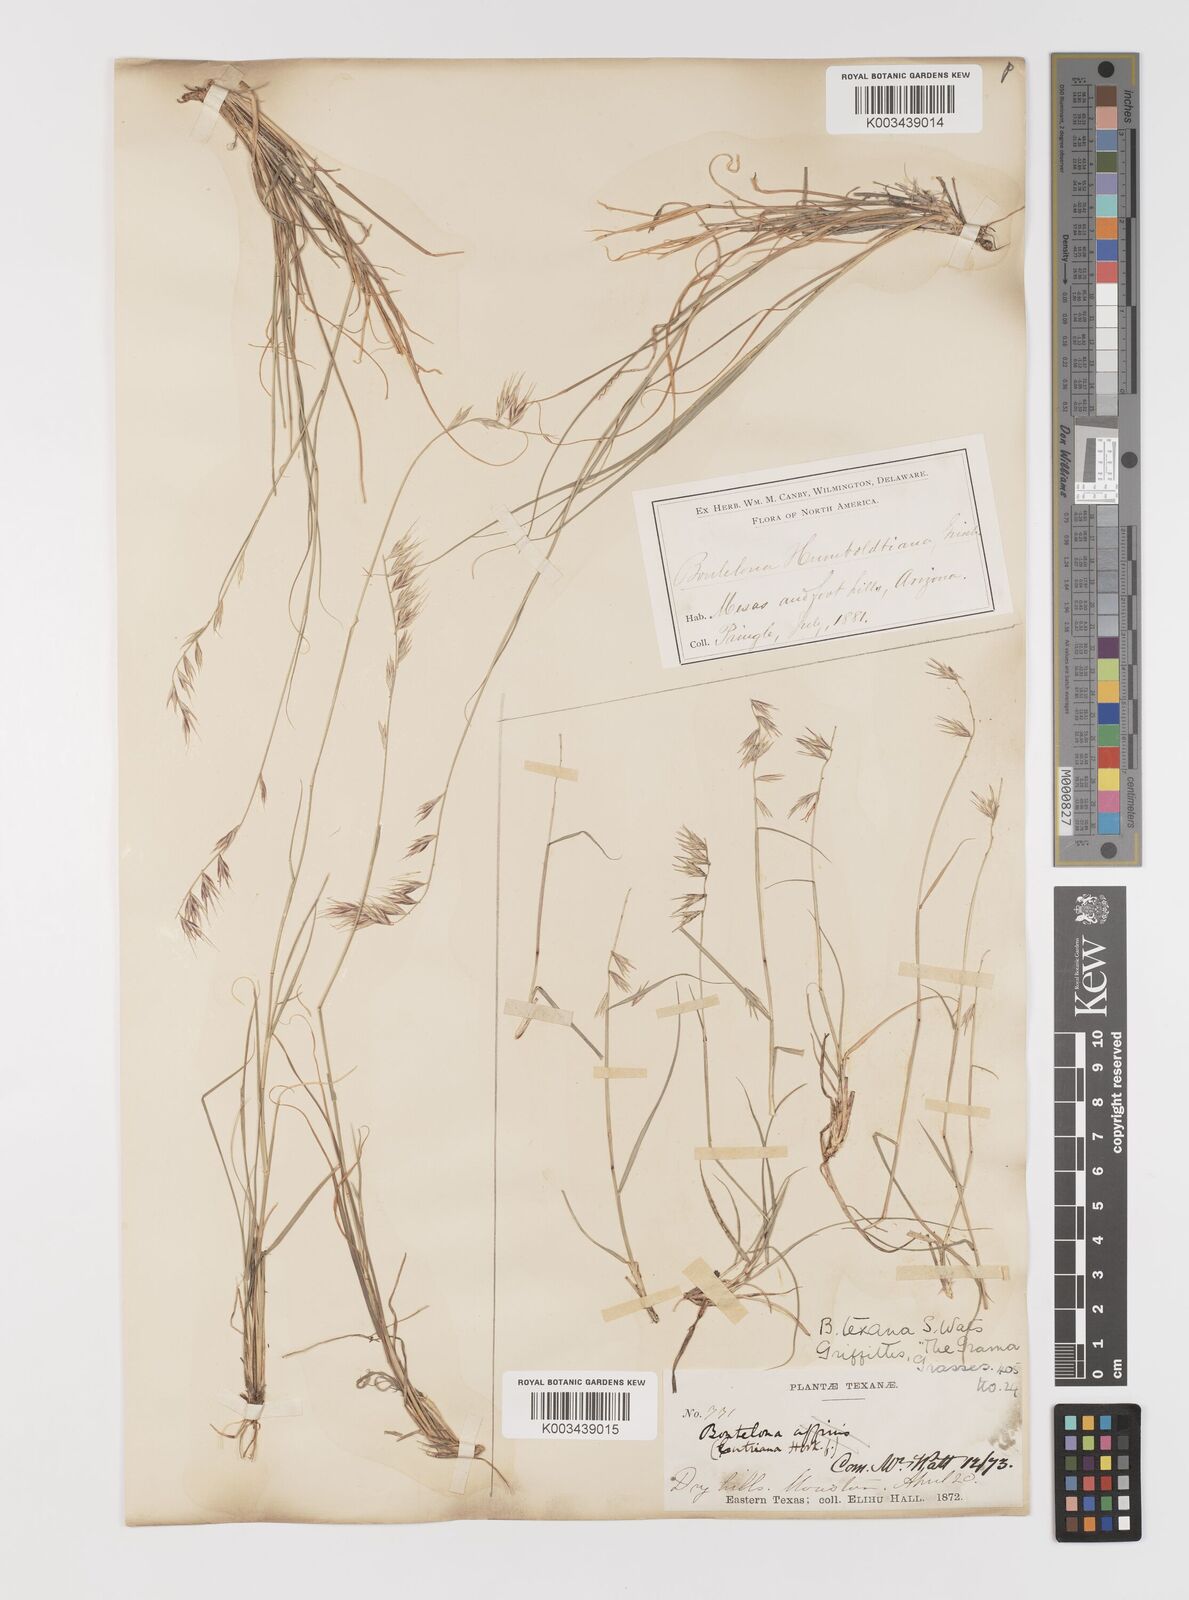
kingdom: Plantae
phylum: Tracheophyta
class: Liliopsida
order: Poales
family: Poaceae
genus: Bouteloua
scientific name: Bouteloua rigidiseta
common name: Texas grama
